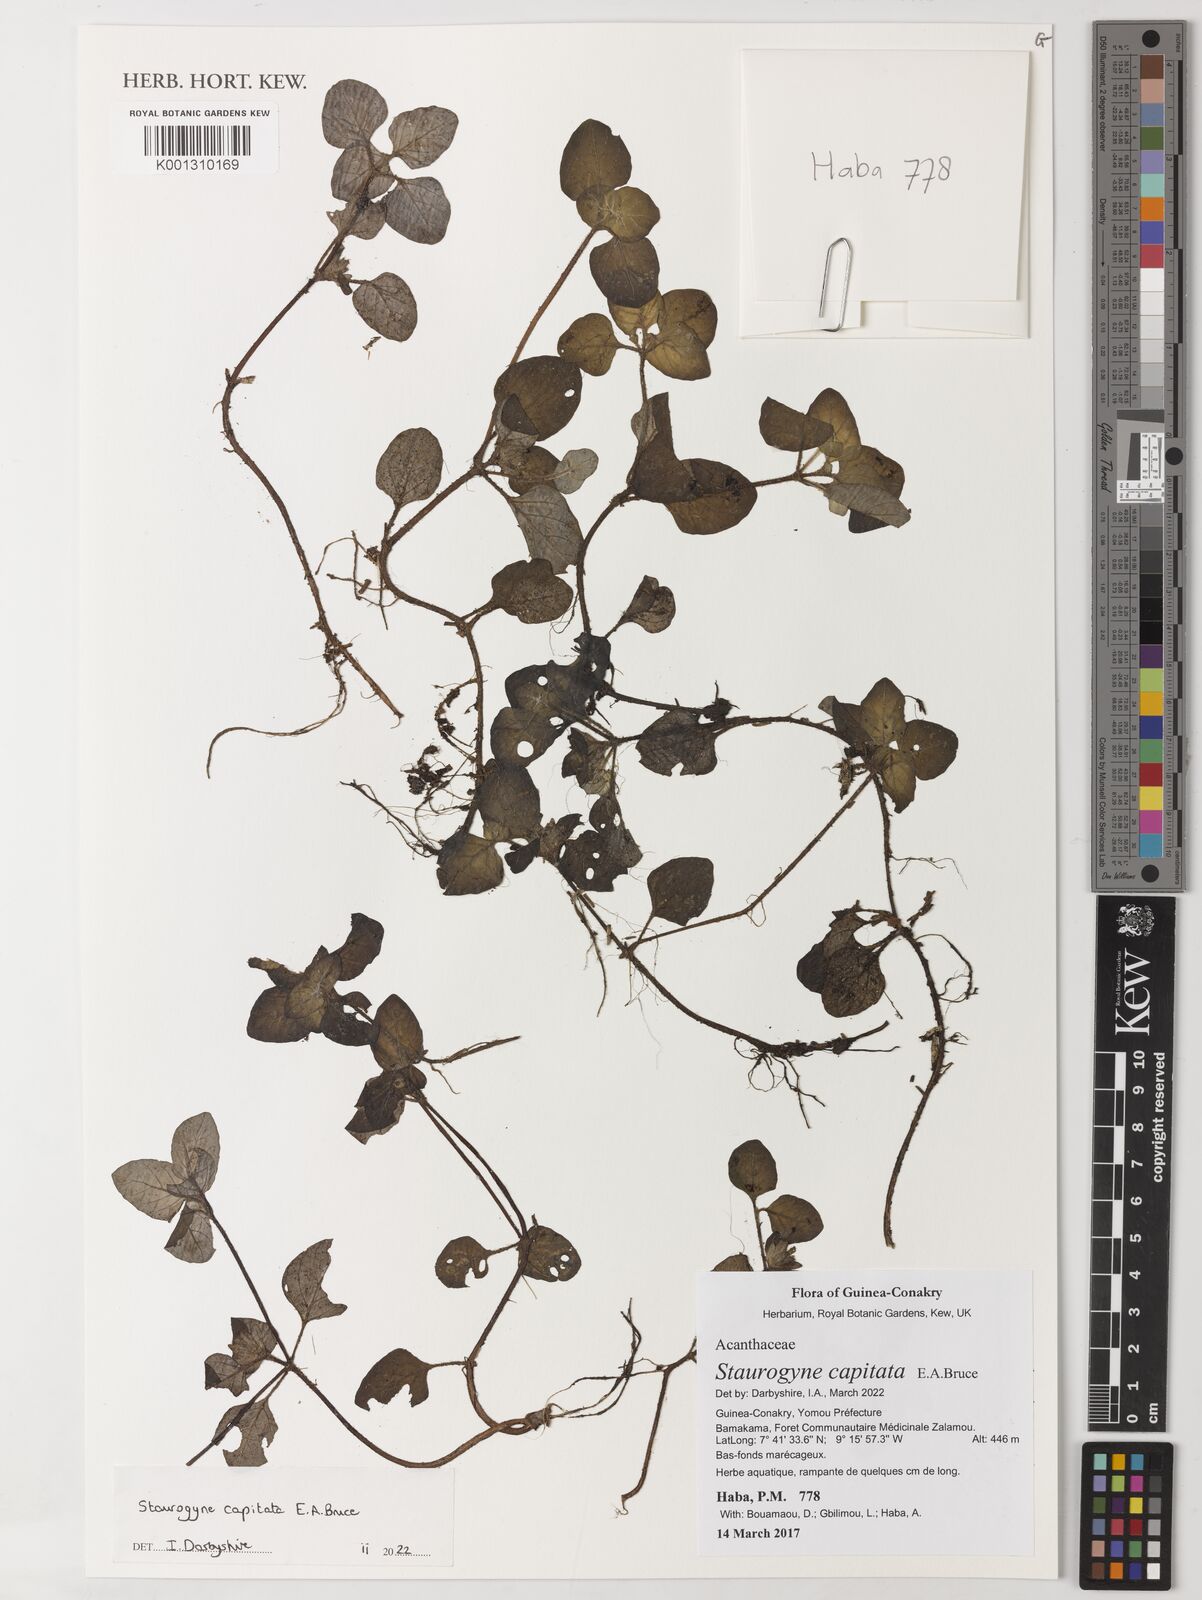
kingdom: Plantae
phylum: Tracheophyta
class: Magnoliopsida
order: Lamiales
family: Acanthaceae
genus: Staurogyne
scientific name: Staurogyne capitata
